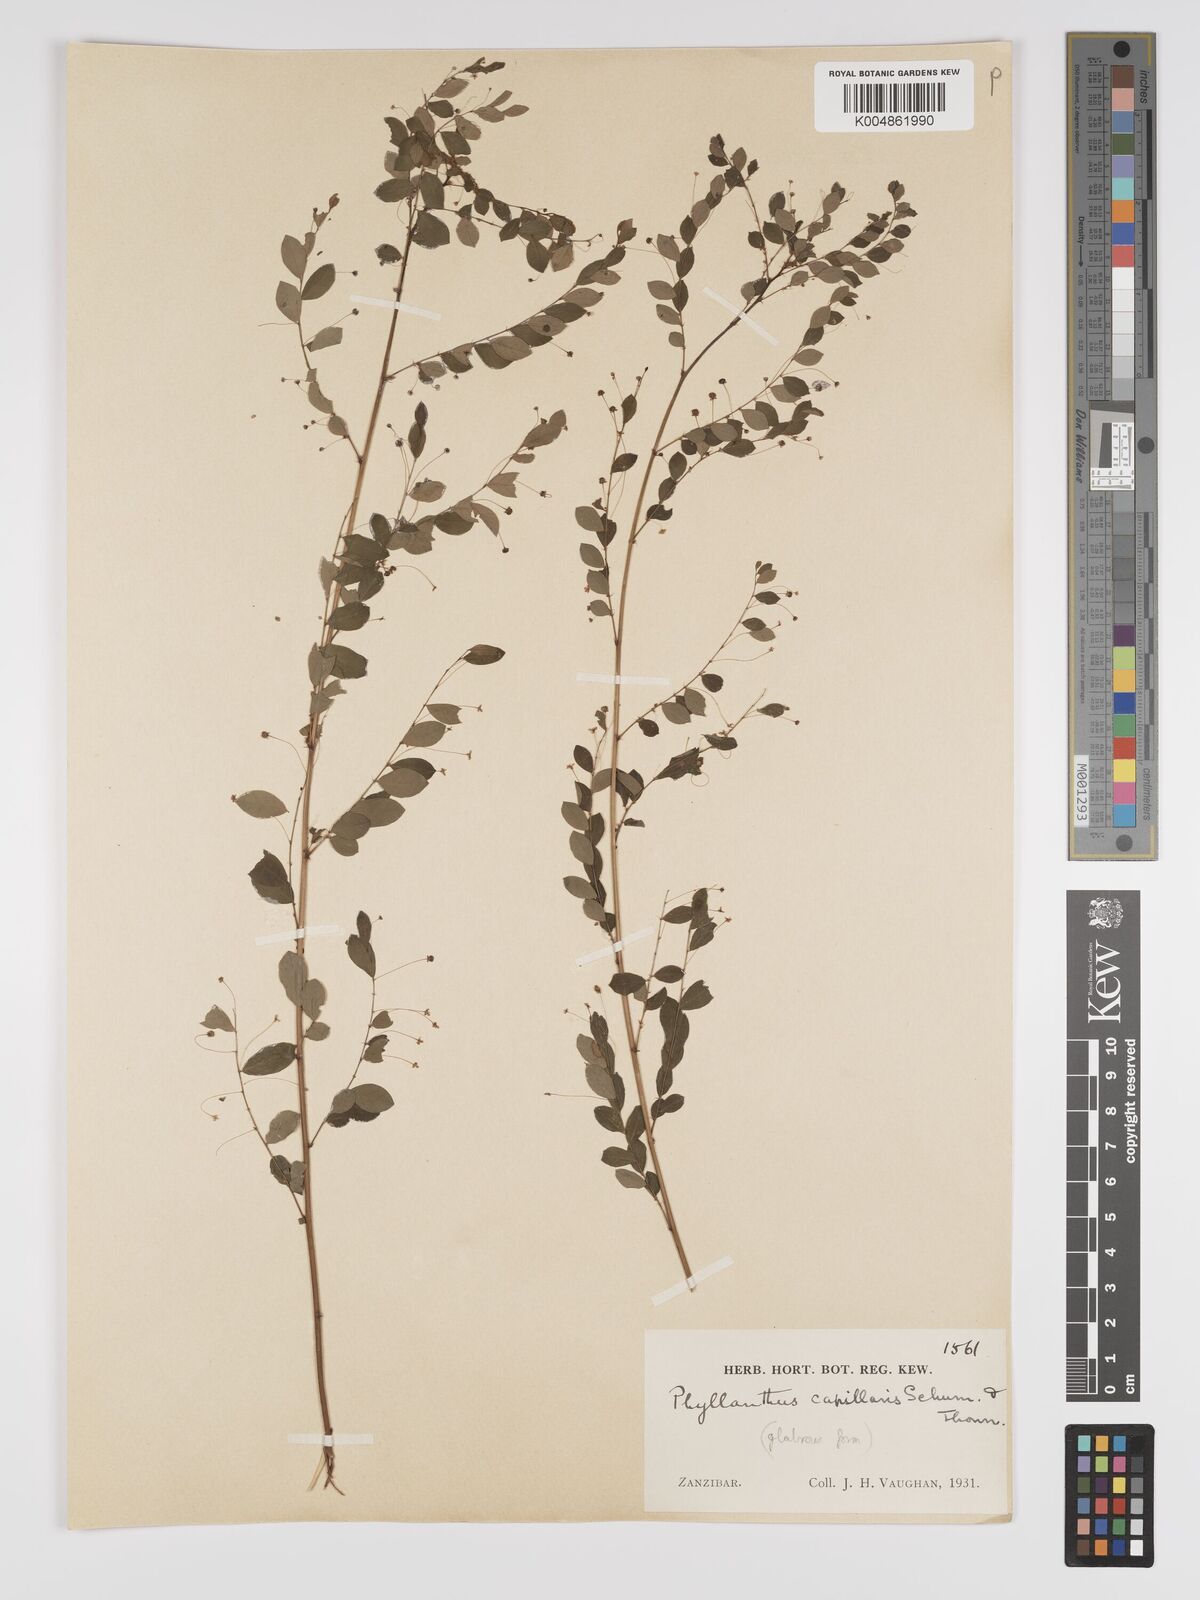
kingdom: Plantae
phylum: Tracheophyta
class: Magnoliopsida
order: Malpighiales
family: Phyllanthaceae
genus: Phyllanthus
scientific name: Phyllanthus nummulariifolius
